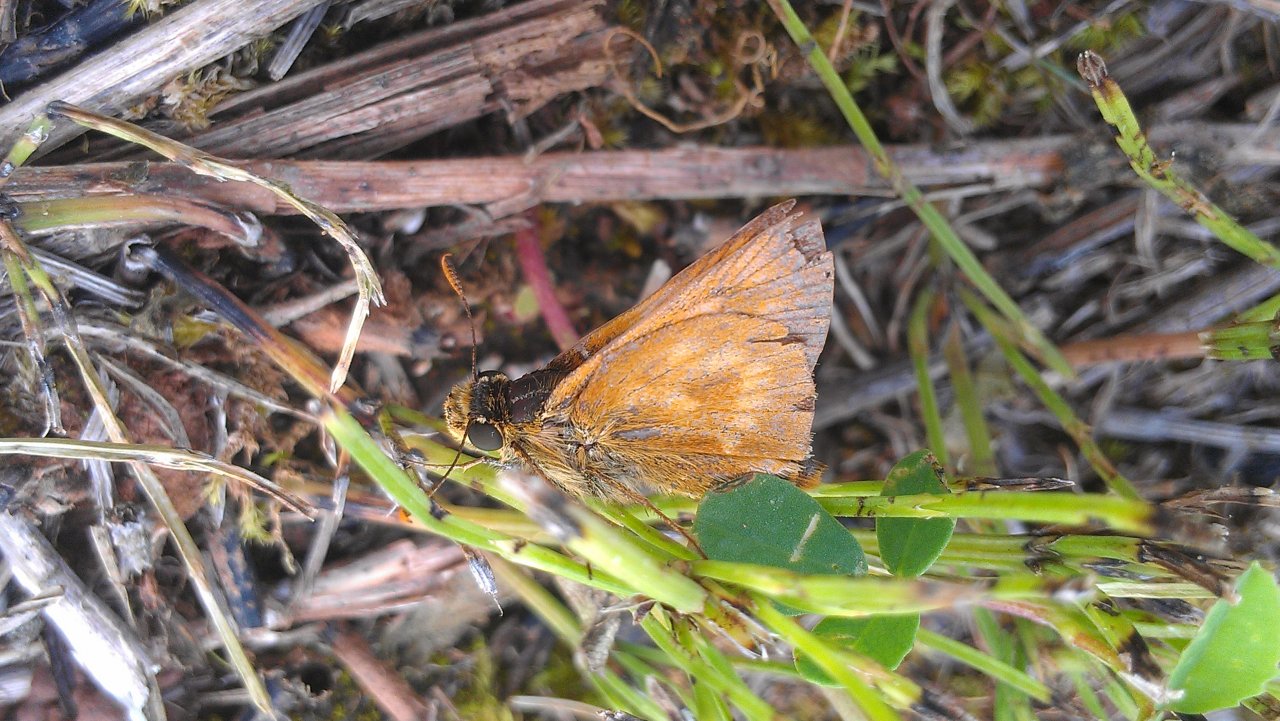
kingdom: Animalia
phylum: Arthropoda
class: Insecta
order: Lepidoptera
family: Hesperiidae
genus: Polites
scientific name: Polites
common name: Long Dash Skipper
